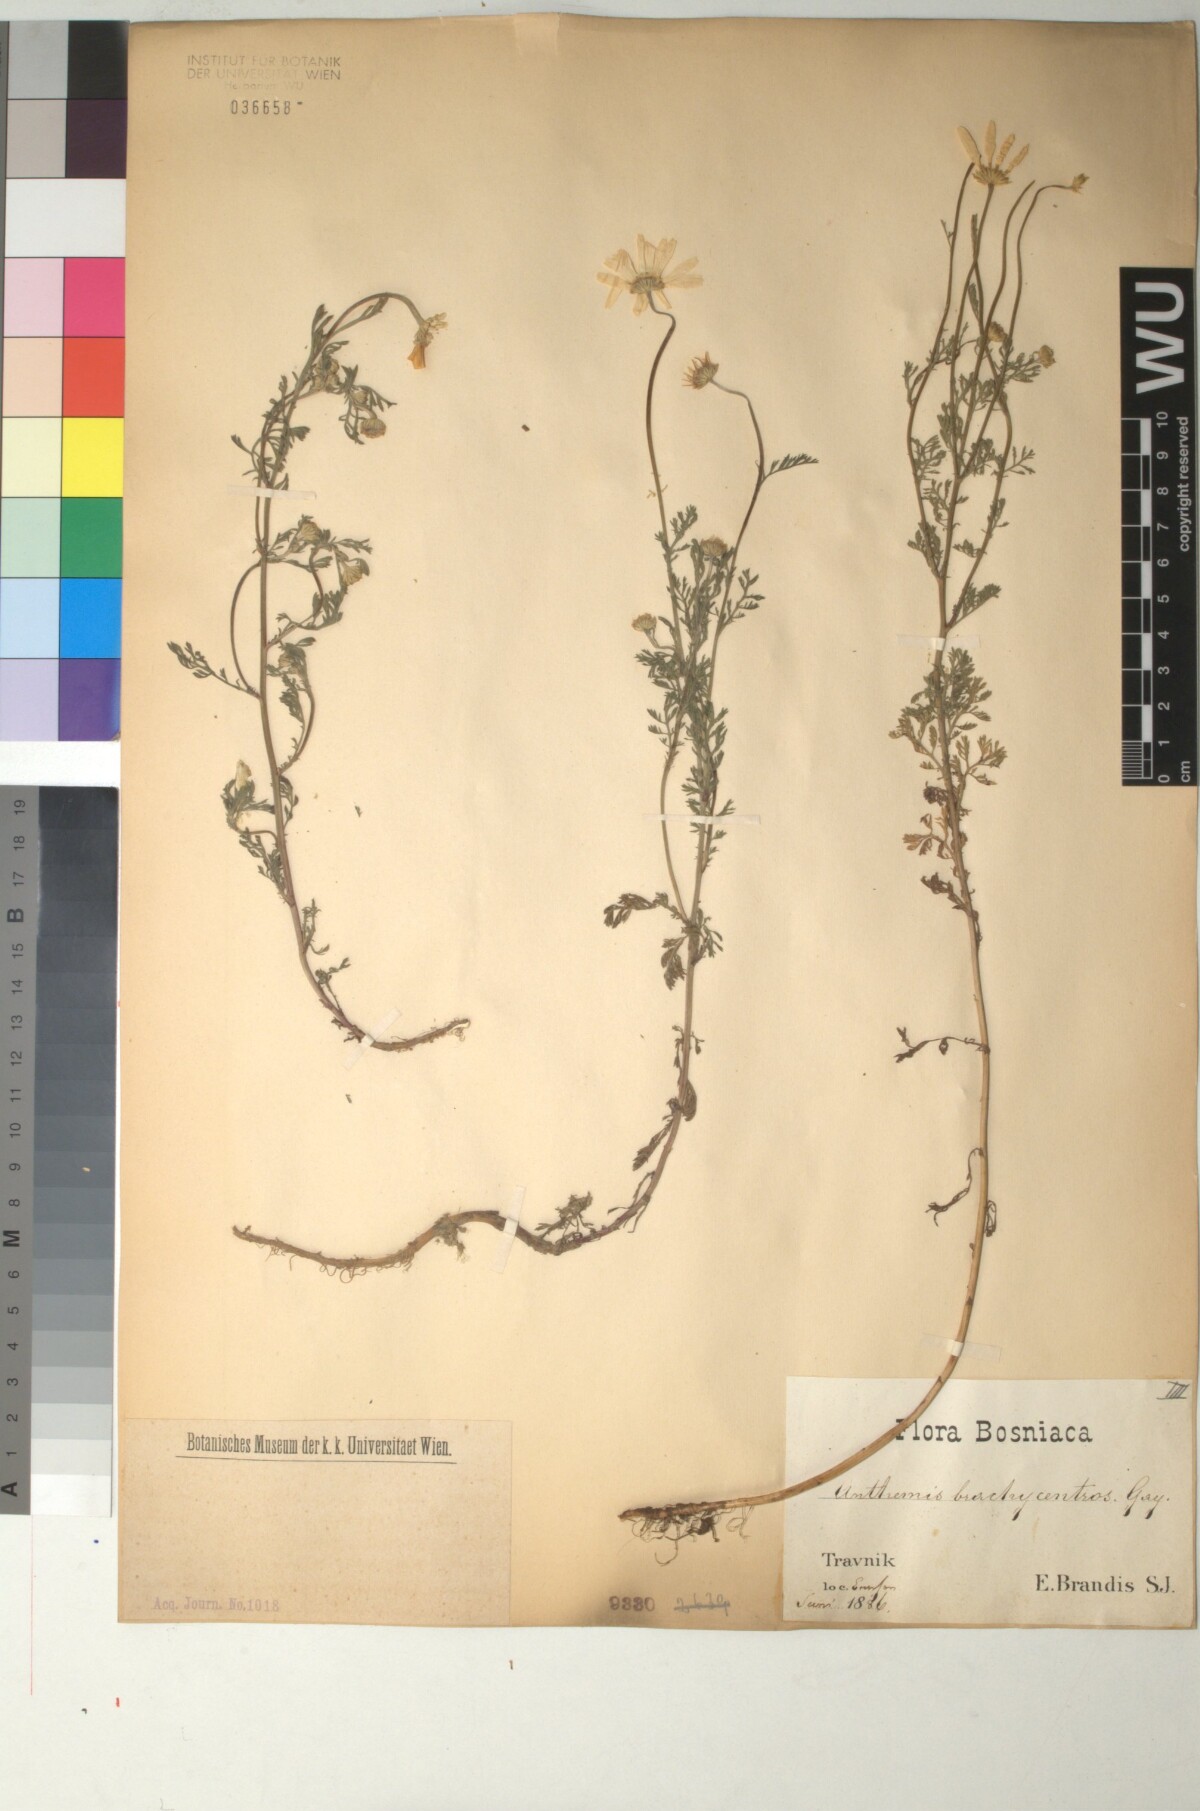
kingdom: Plantae
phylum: Tracheophyta
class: Magnoliopsida
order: Asterales
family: Asteraceae
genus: Cota
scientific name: Cota segetalis
